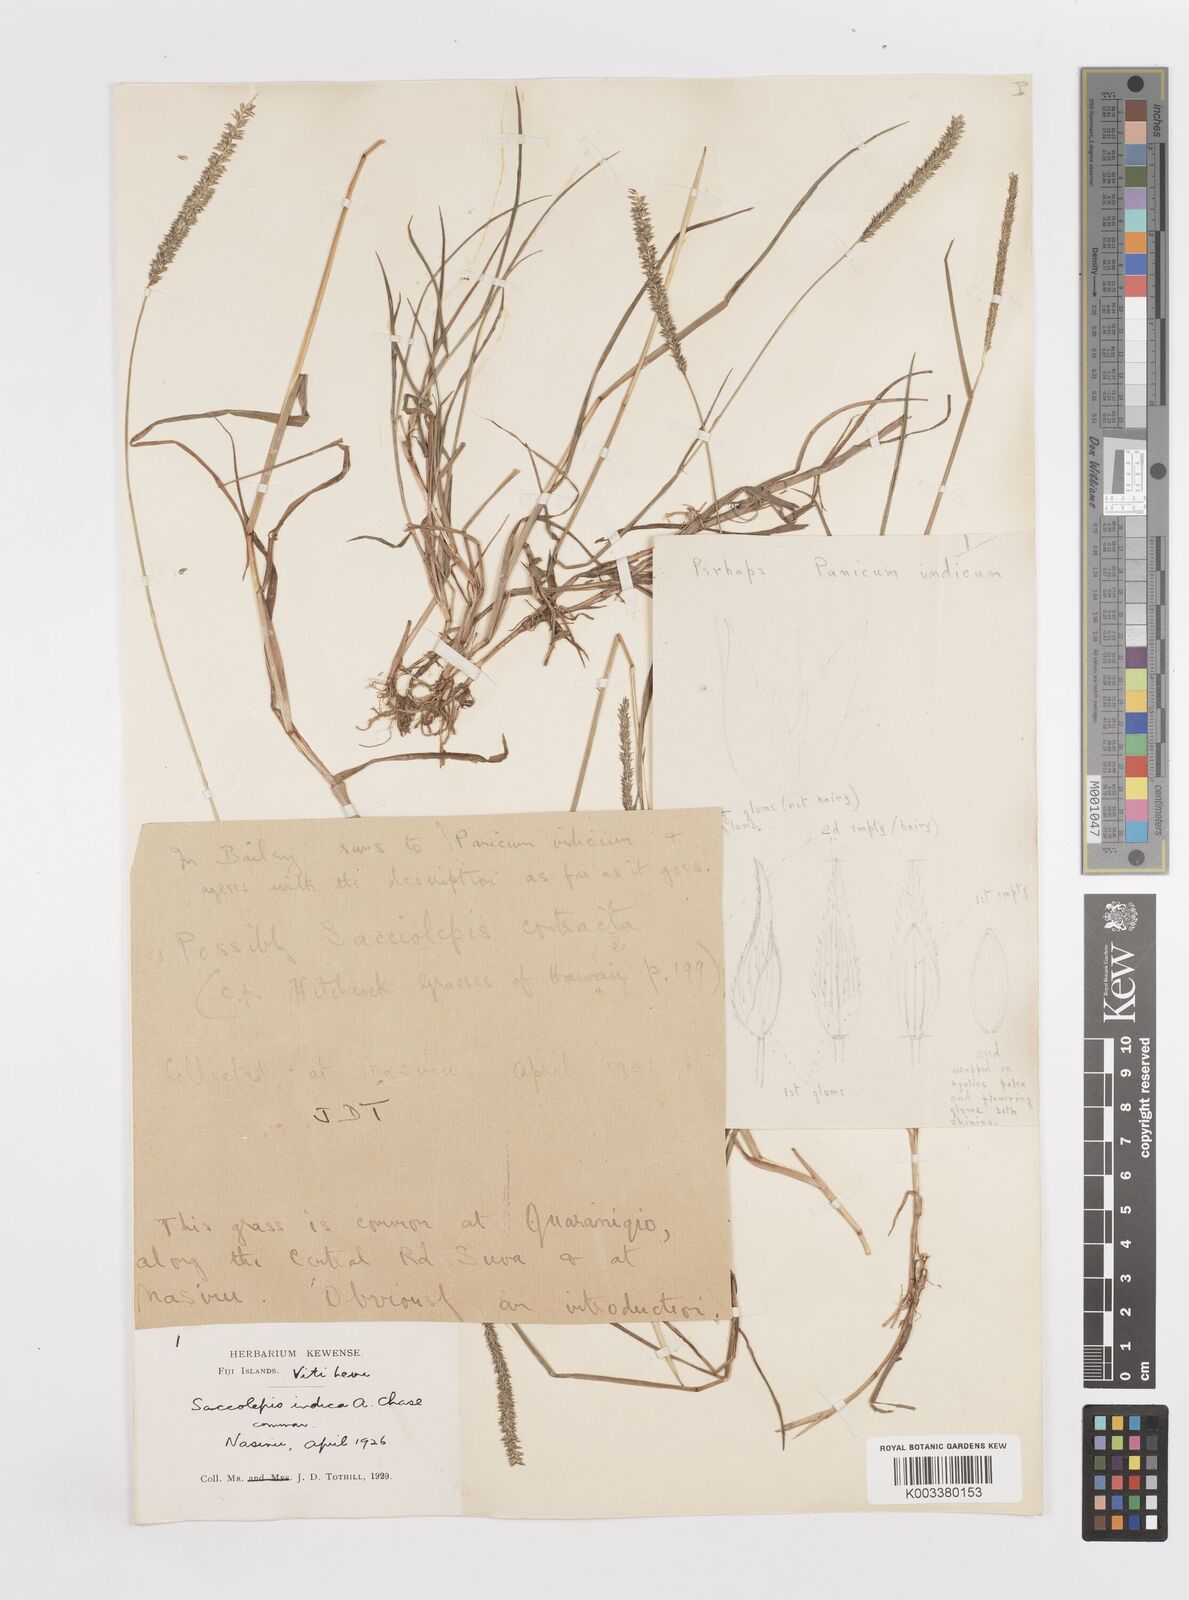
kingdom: Plantae
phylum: Tracheophyta
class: Liliopsida
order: Poales
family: Poaceae
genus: Sacciolepis
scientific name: Sacciolepis indica
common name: Glenwoodgrass
